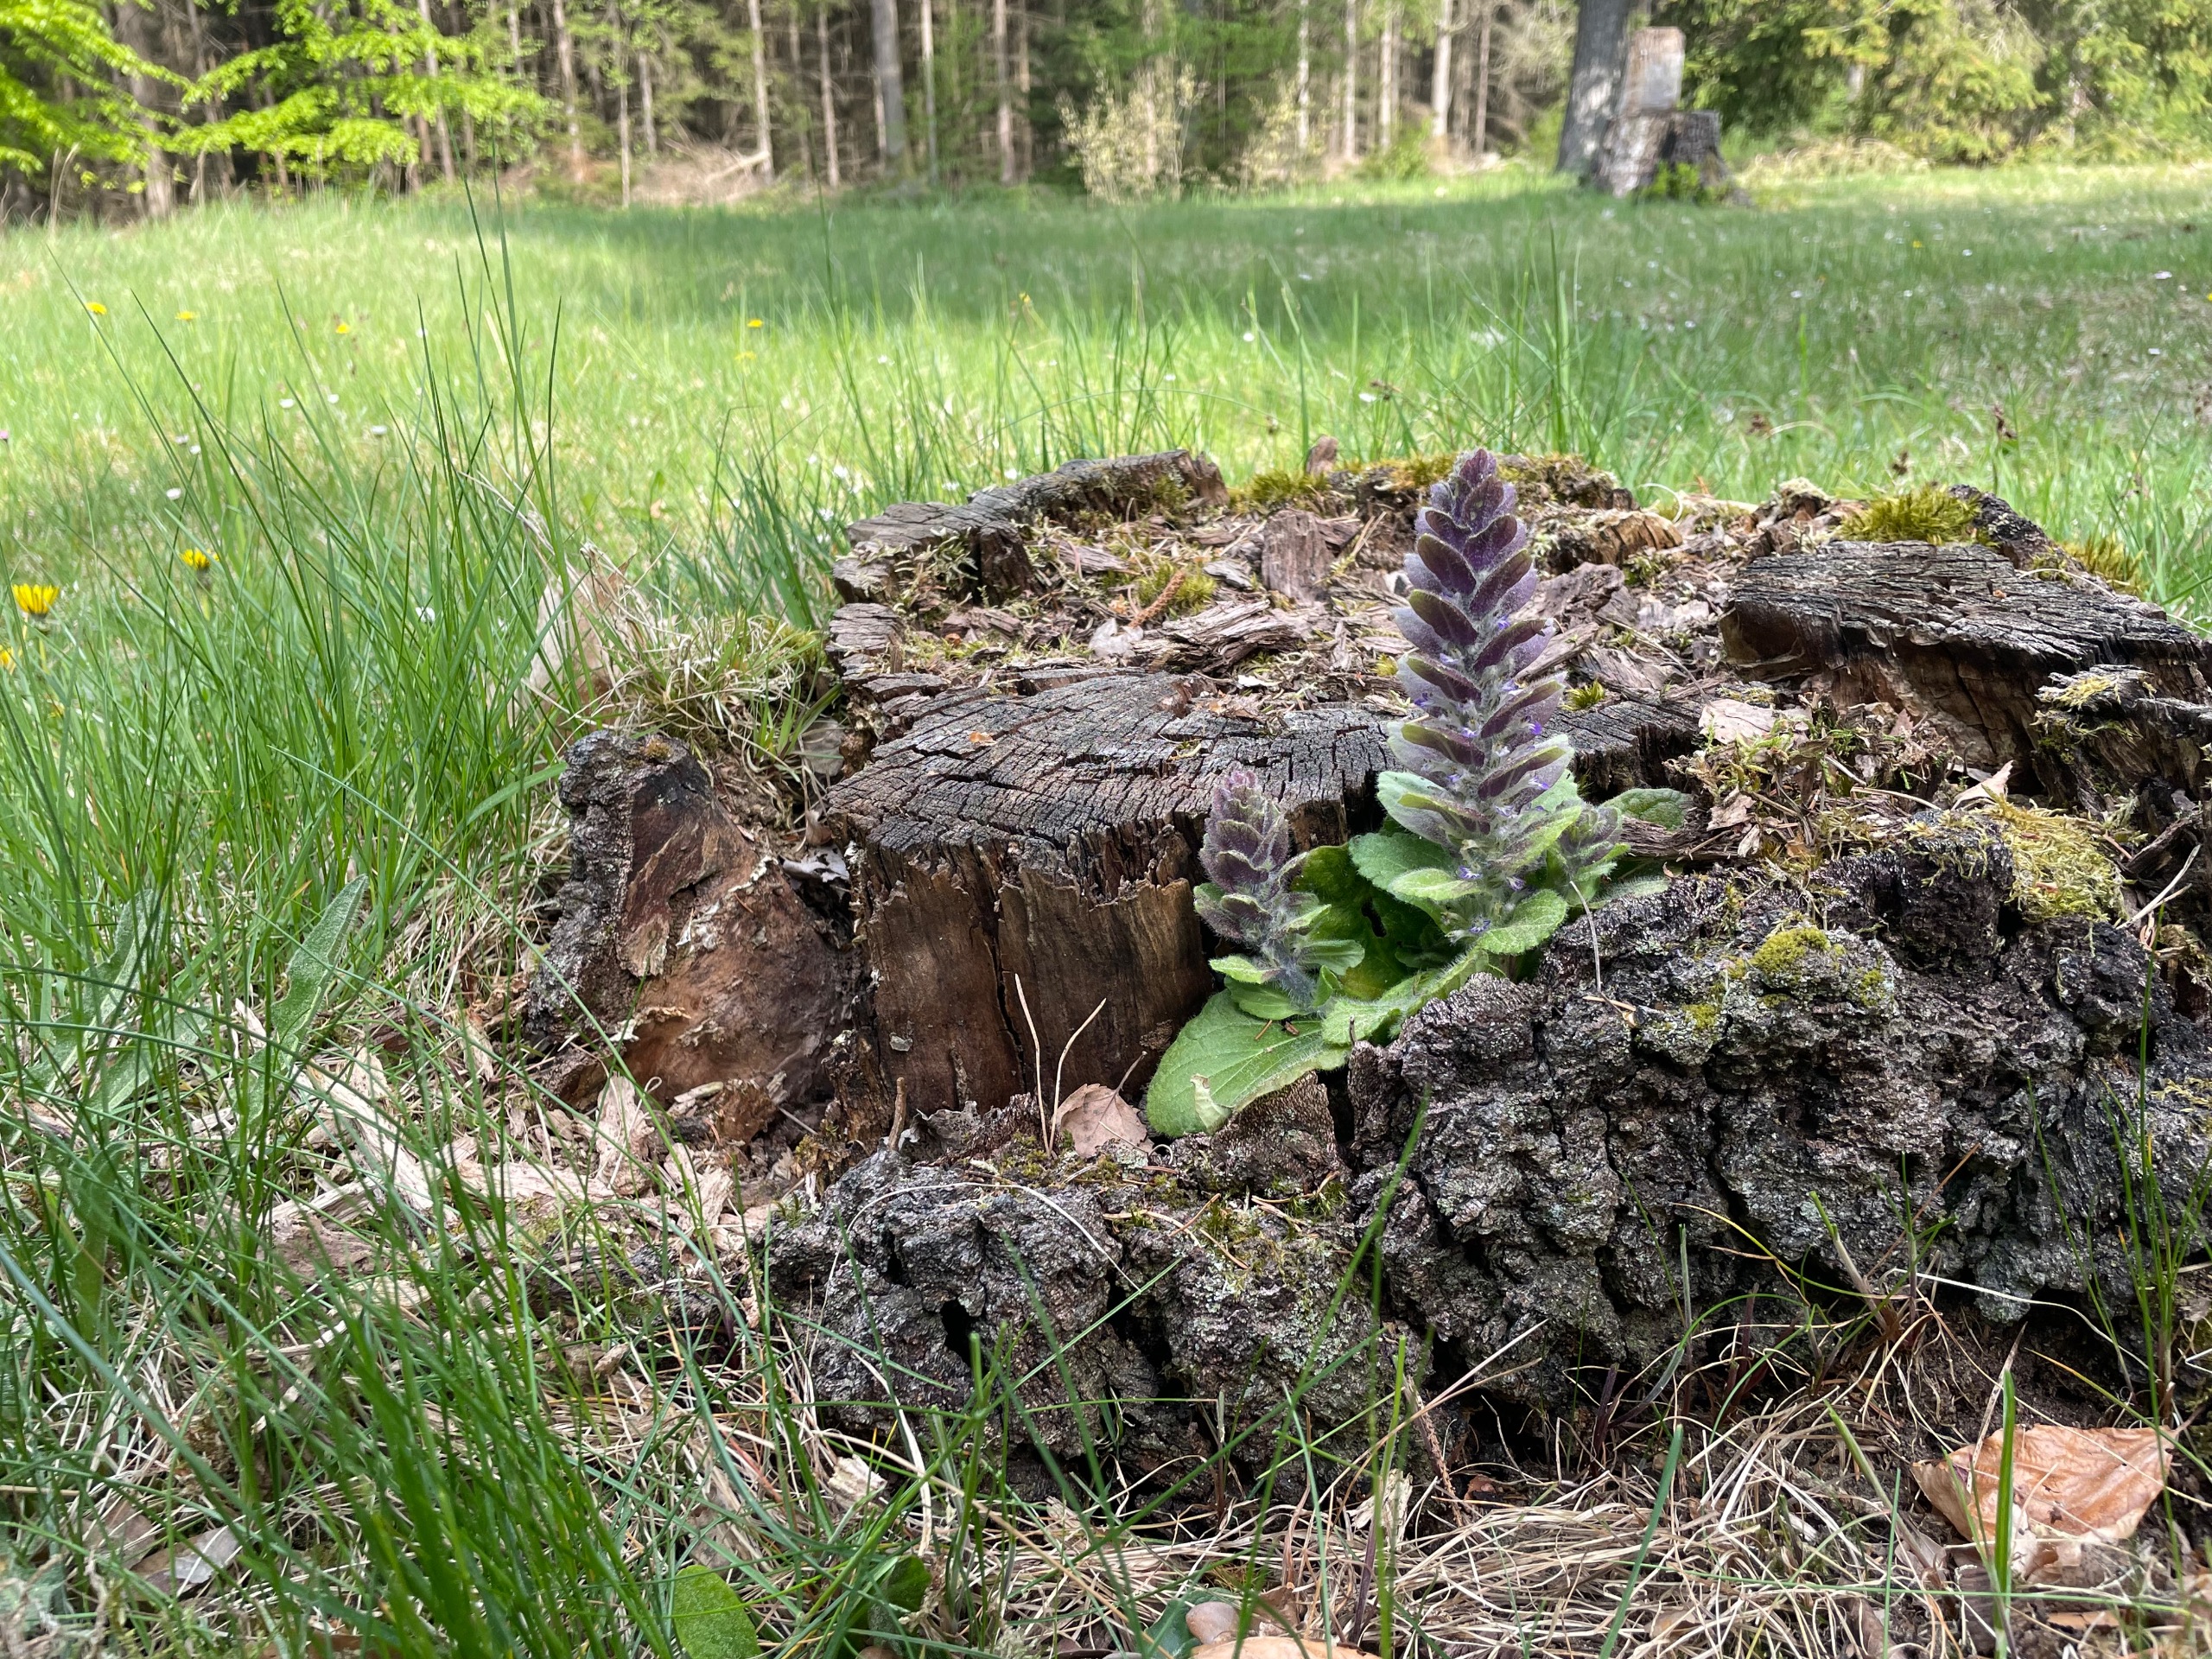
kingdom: Plantae
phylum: Tracheophyta
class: Magnoliopsida
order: Lamiales
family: Lamiaceae
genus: Ajuga
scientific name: Ajuga pyramidalis
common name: Pyramide-læbeløs
